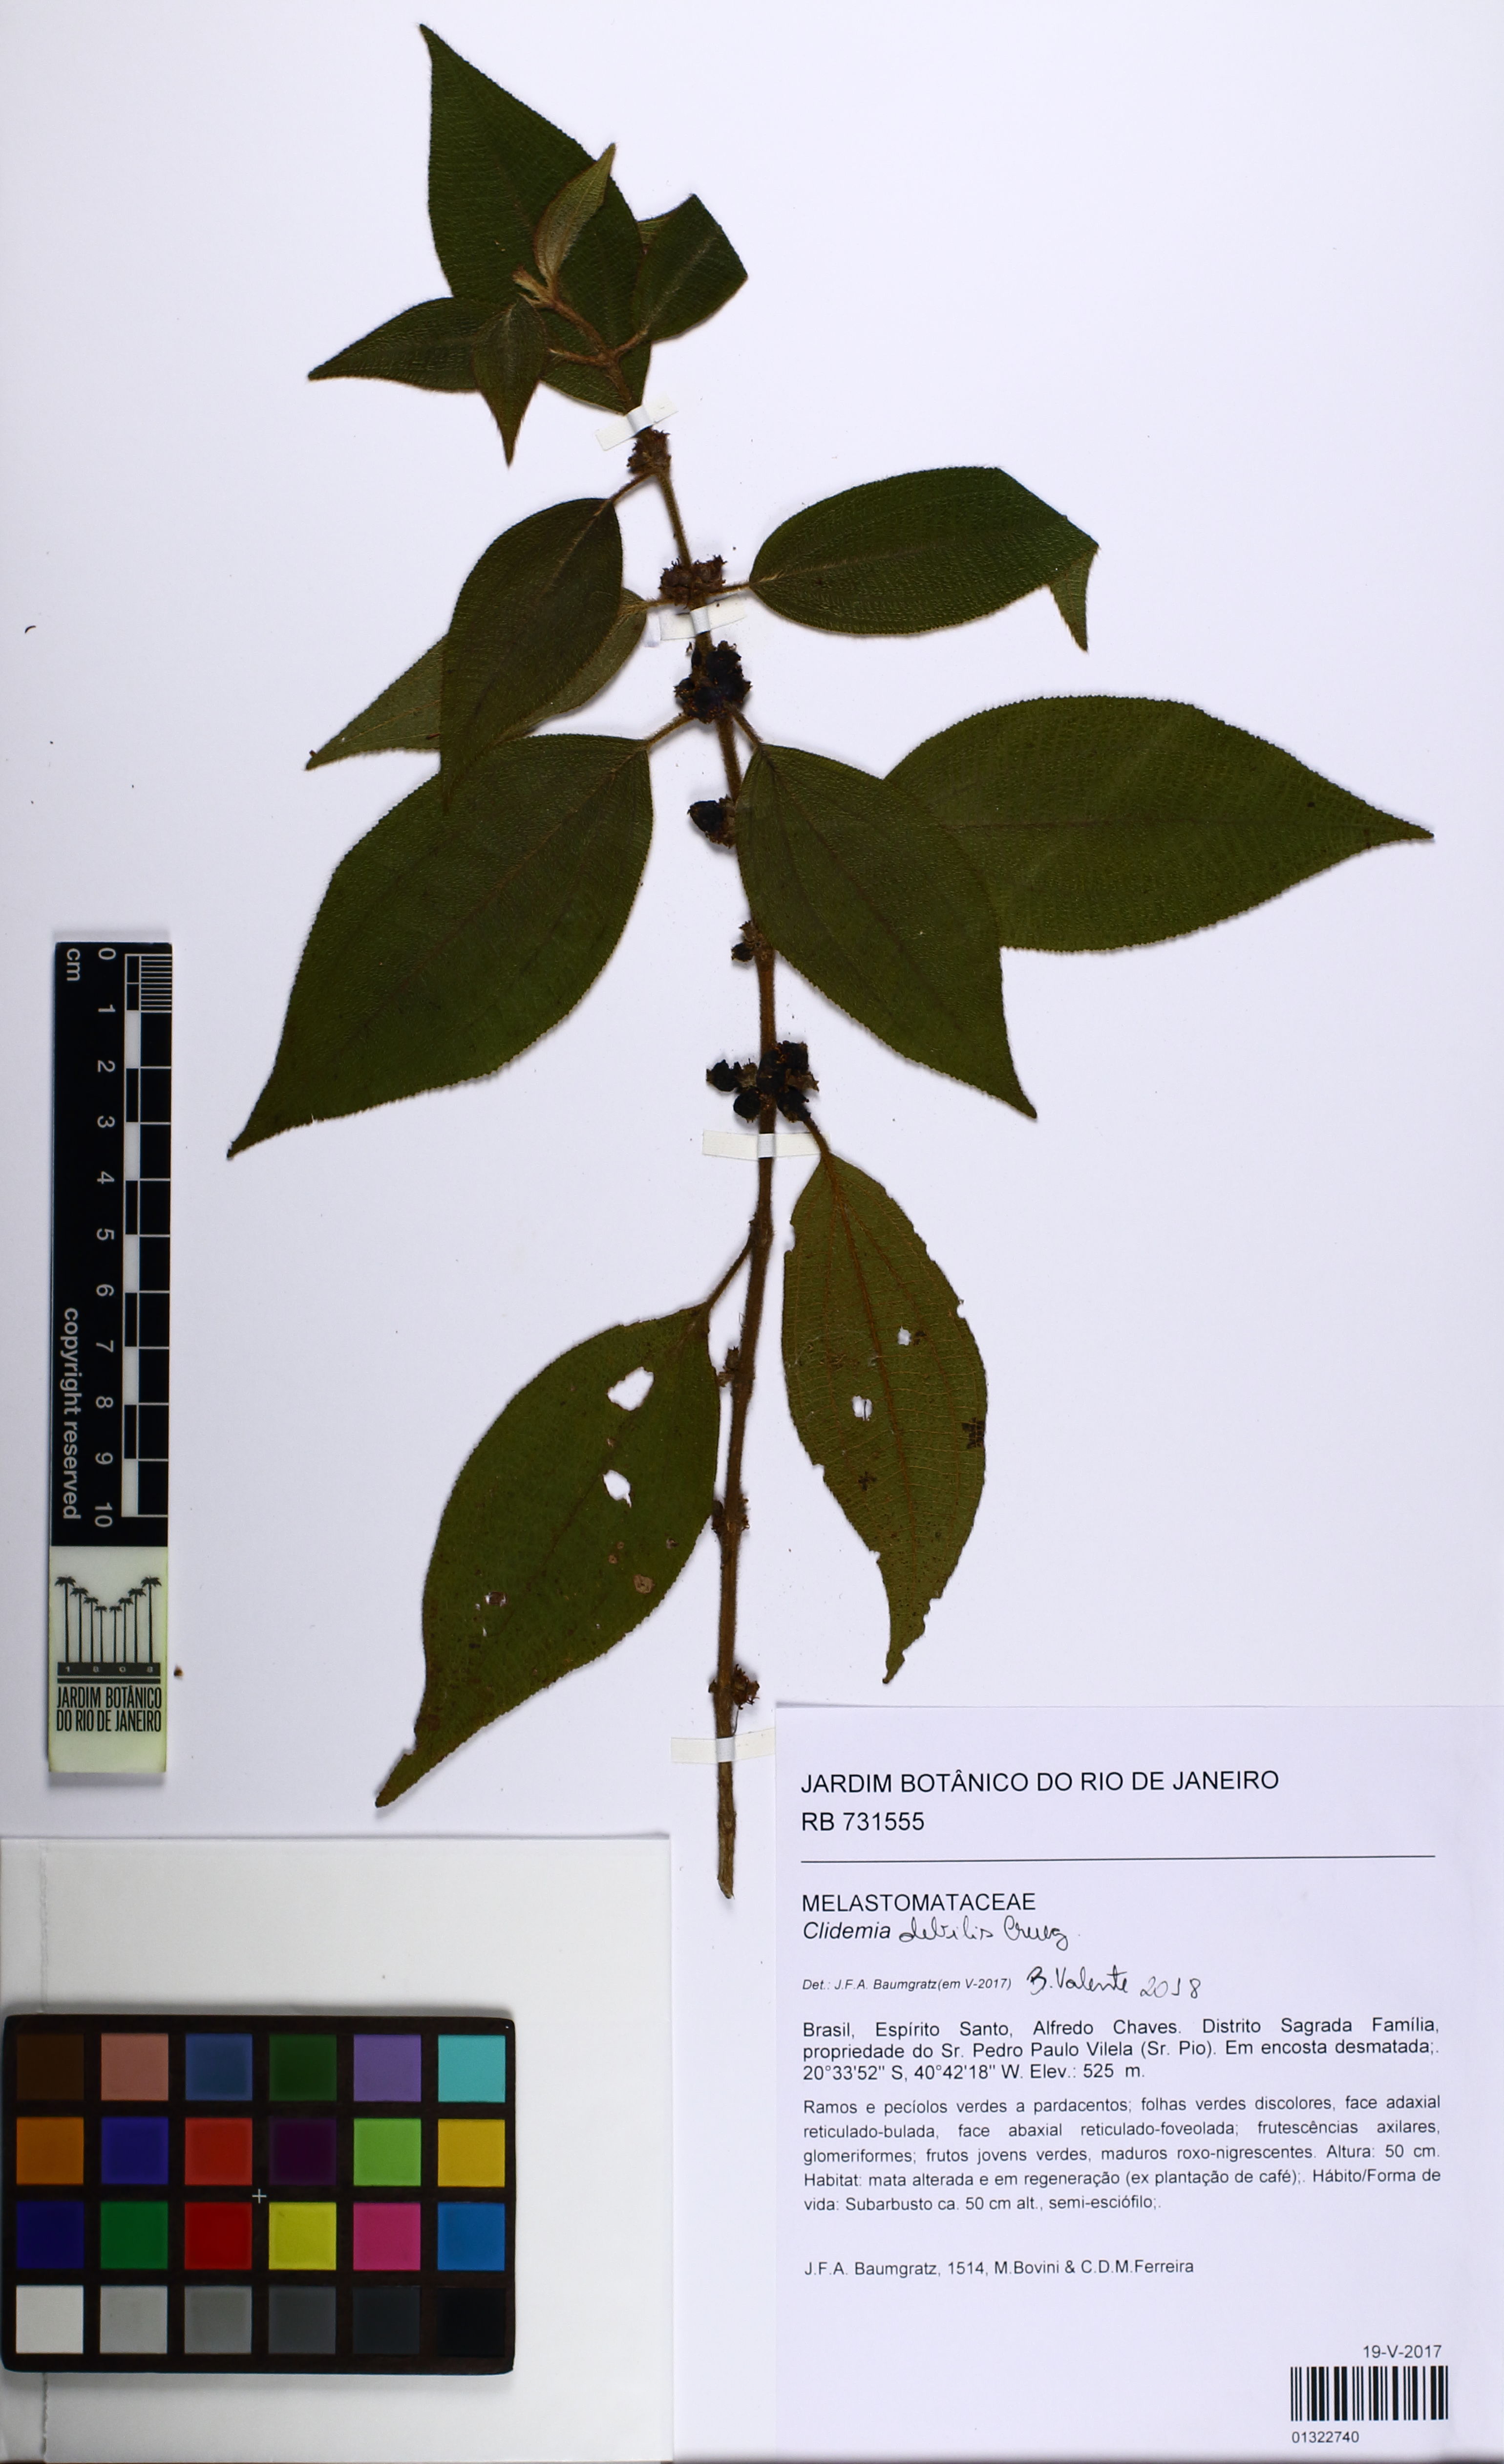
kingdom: Plantae
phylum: Tracheophyta
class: Magnoliopsida
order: Myrtales
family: Melastomataceae
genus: Miconia
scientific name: Miconia debilis
